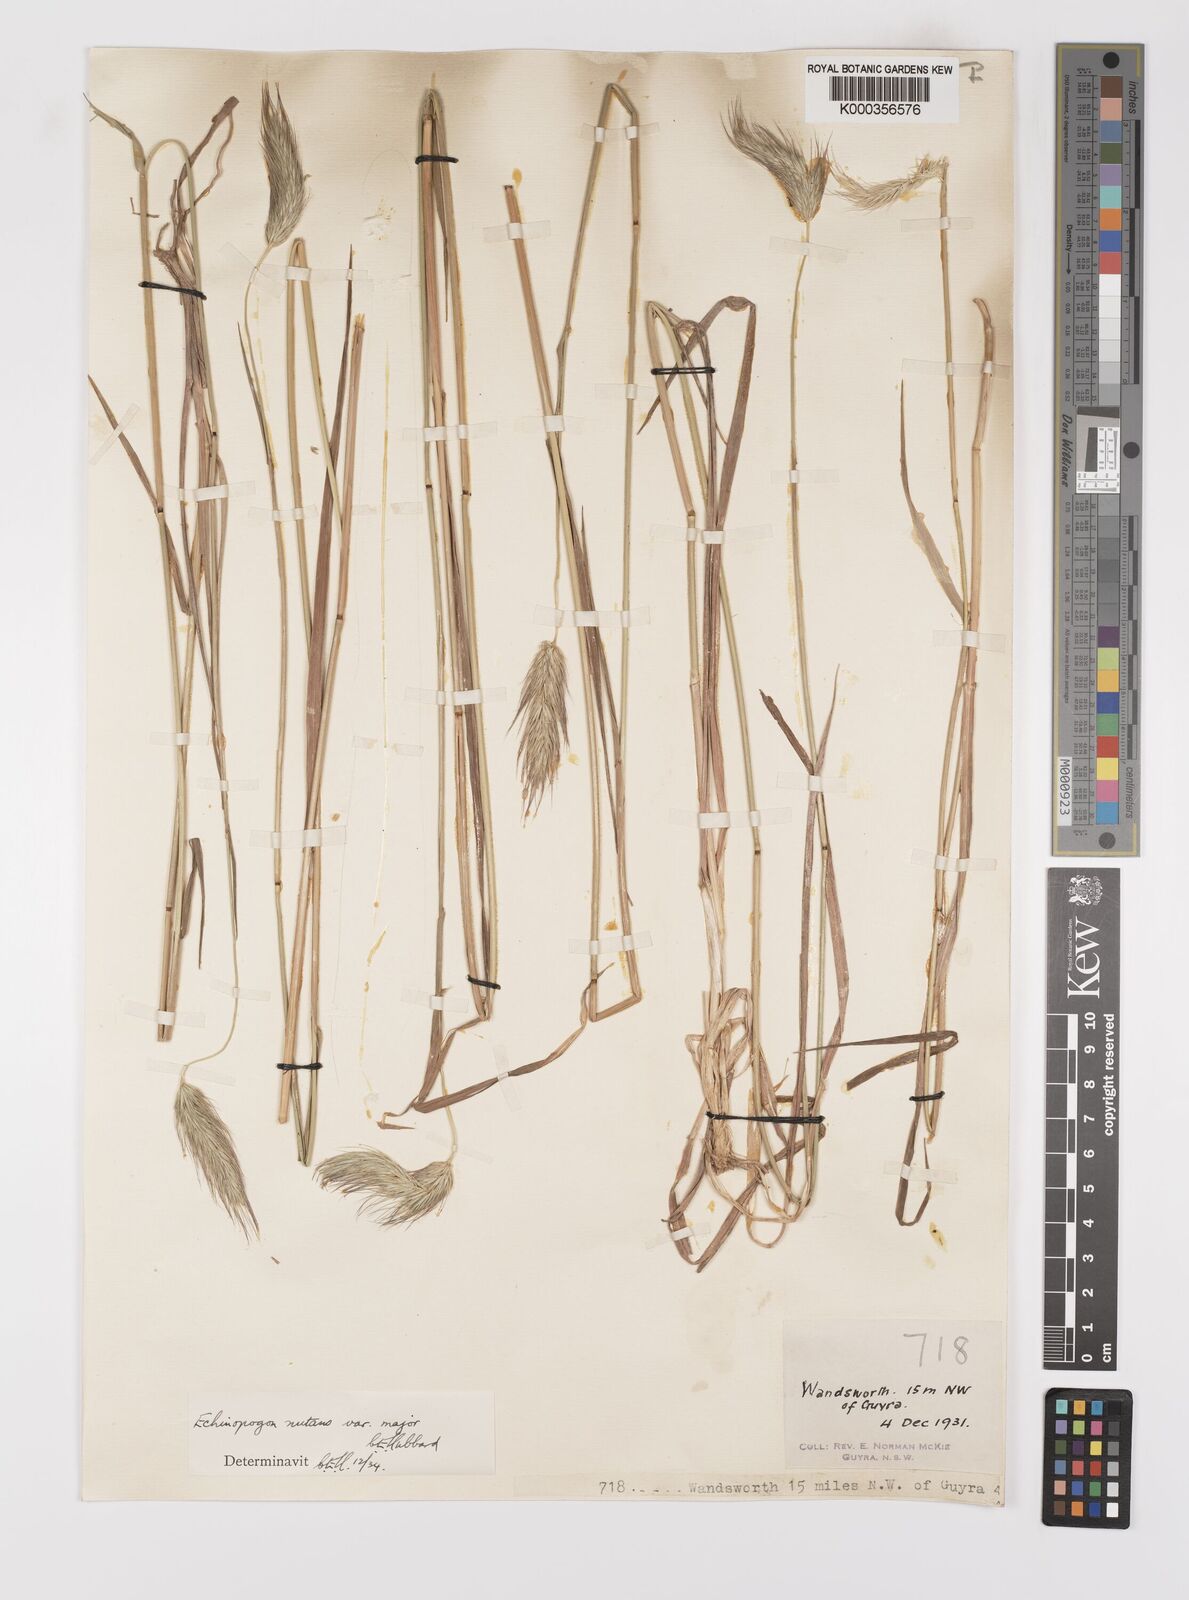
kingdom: Plantae
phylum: Tracheophyta
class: Liliopsida
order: Poales
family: Poaceae
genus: Echinopogon
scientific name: Echinopogon nutans
